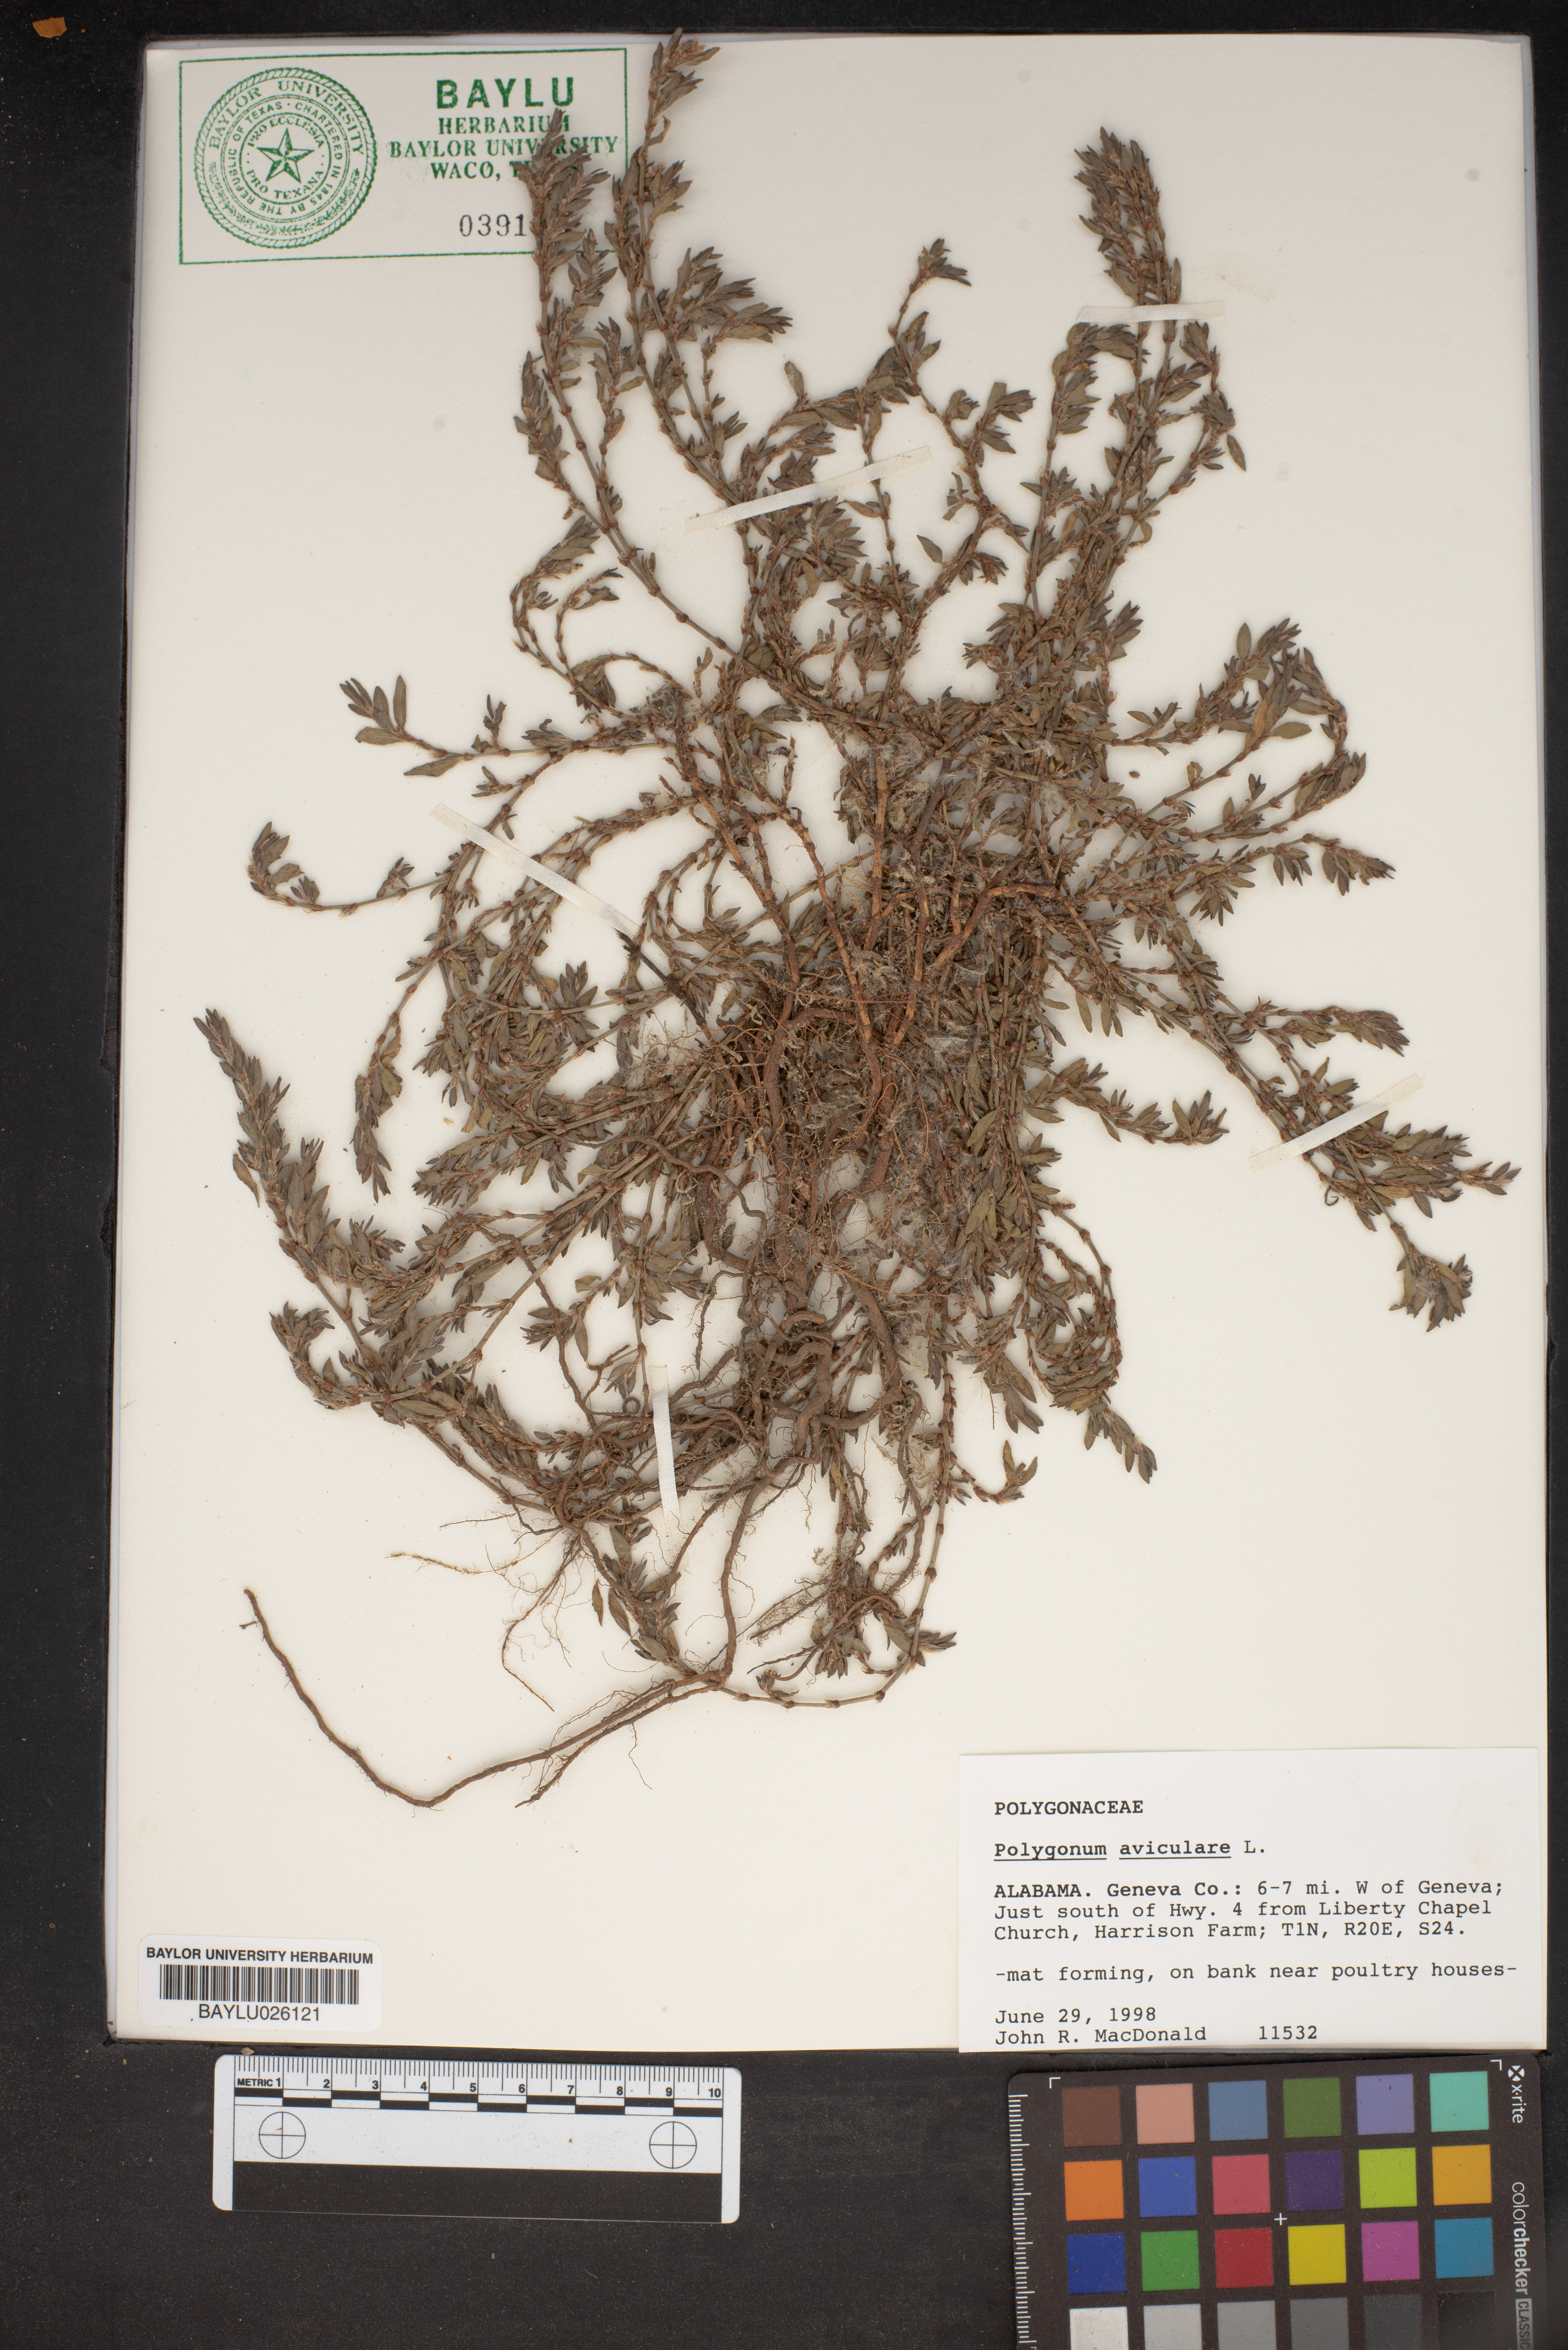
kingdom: Plantae
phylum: Tracheophyta
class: Magnoliopsida
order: Caryophyllales
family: Polygonaceae
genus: Polygonum
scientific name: Polygonum aviculare
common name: Prostrate knotweed
